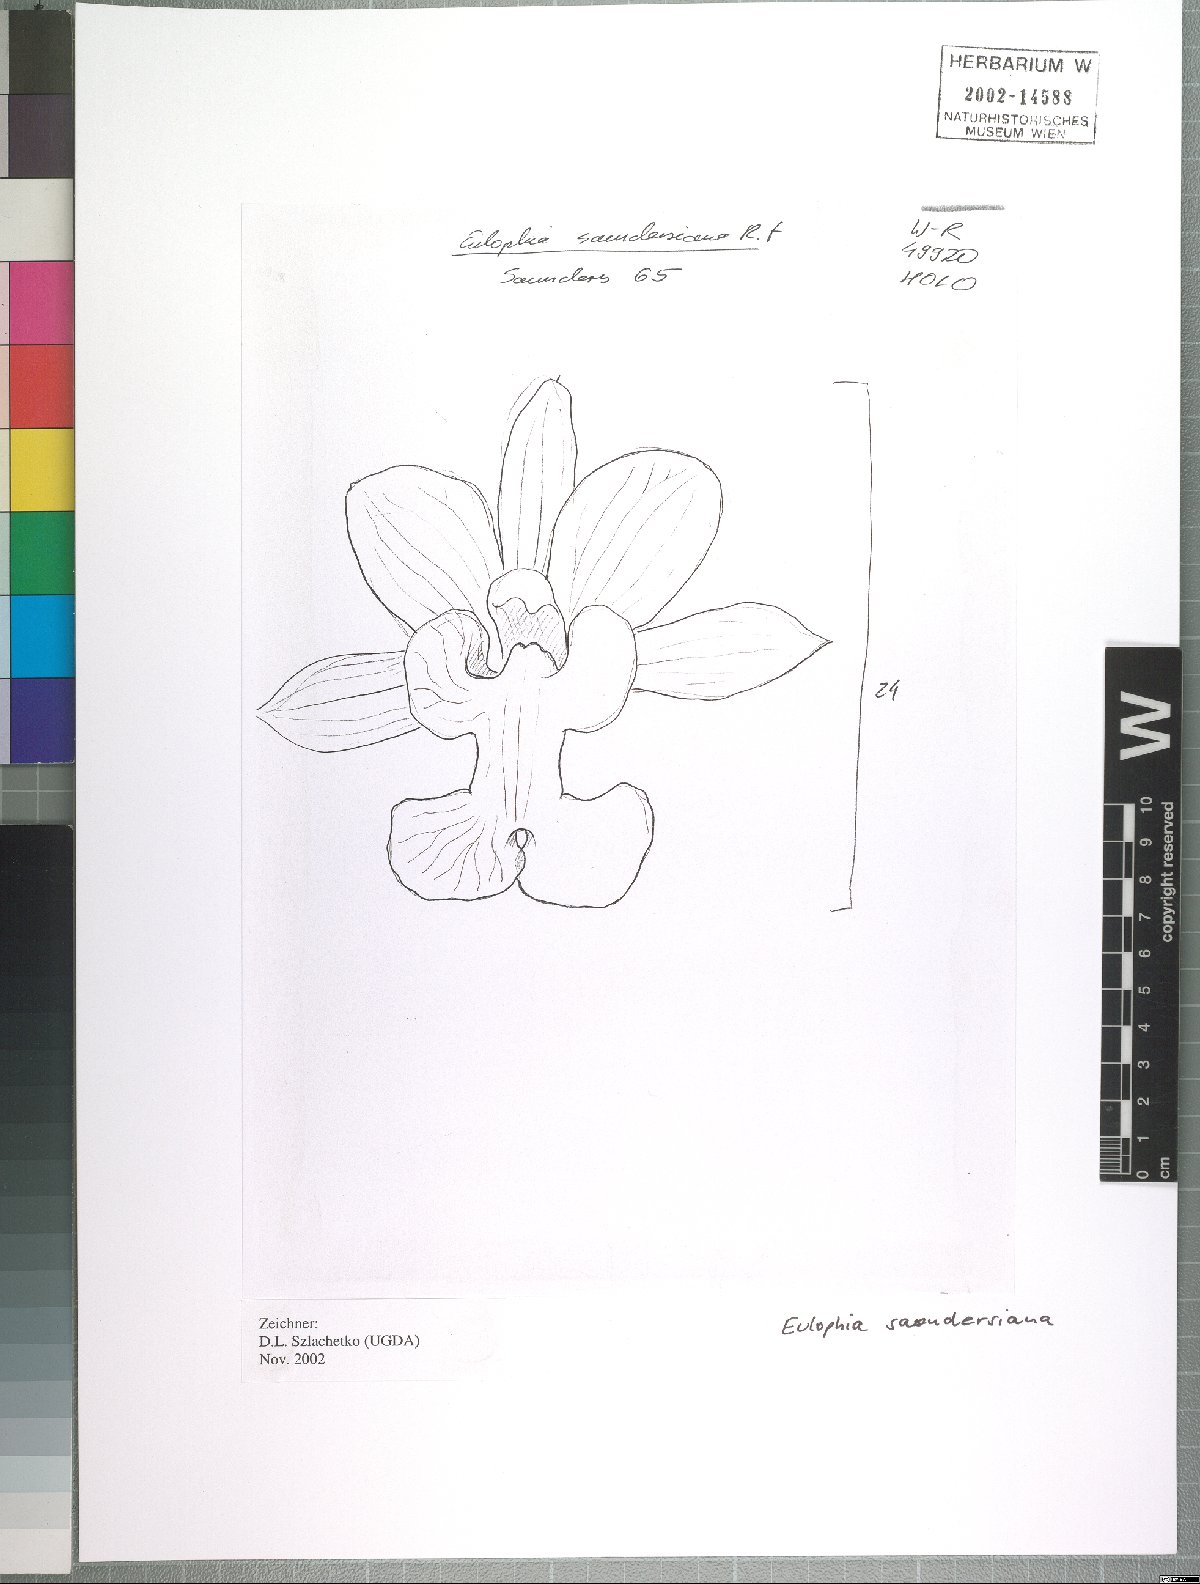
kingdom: Plantae
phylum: Tracheophyta
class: Liliopsida
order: Asparagales
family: Orchidaceae
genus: Eulophia
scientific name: Eulophia saundersiana
